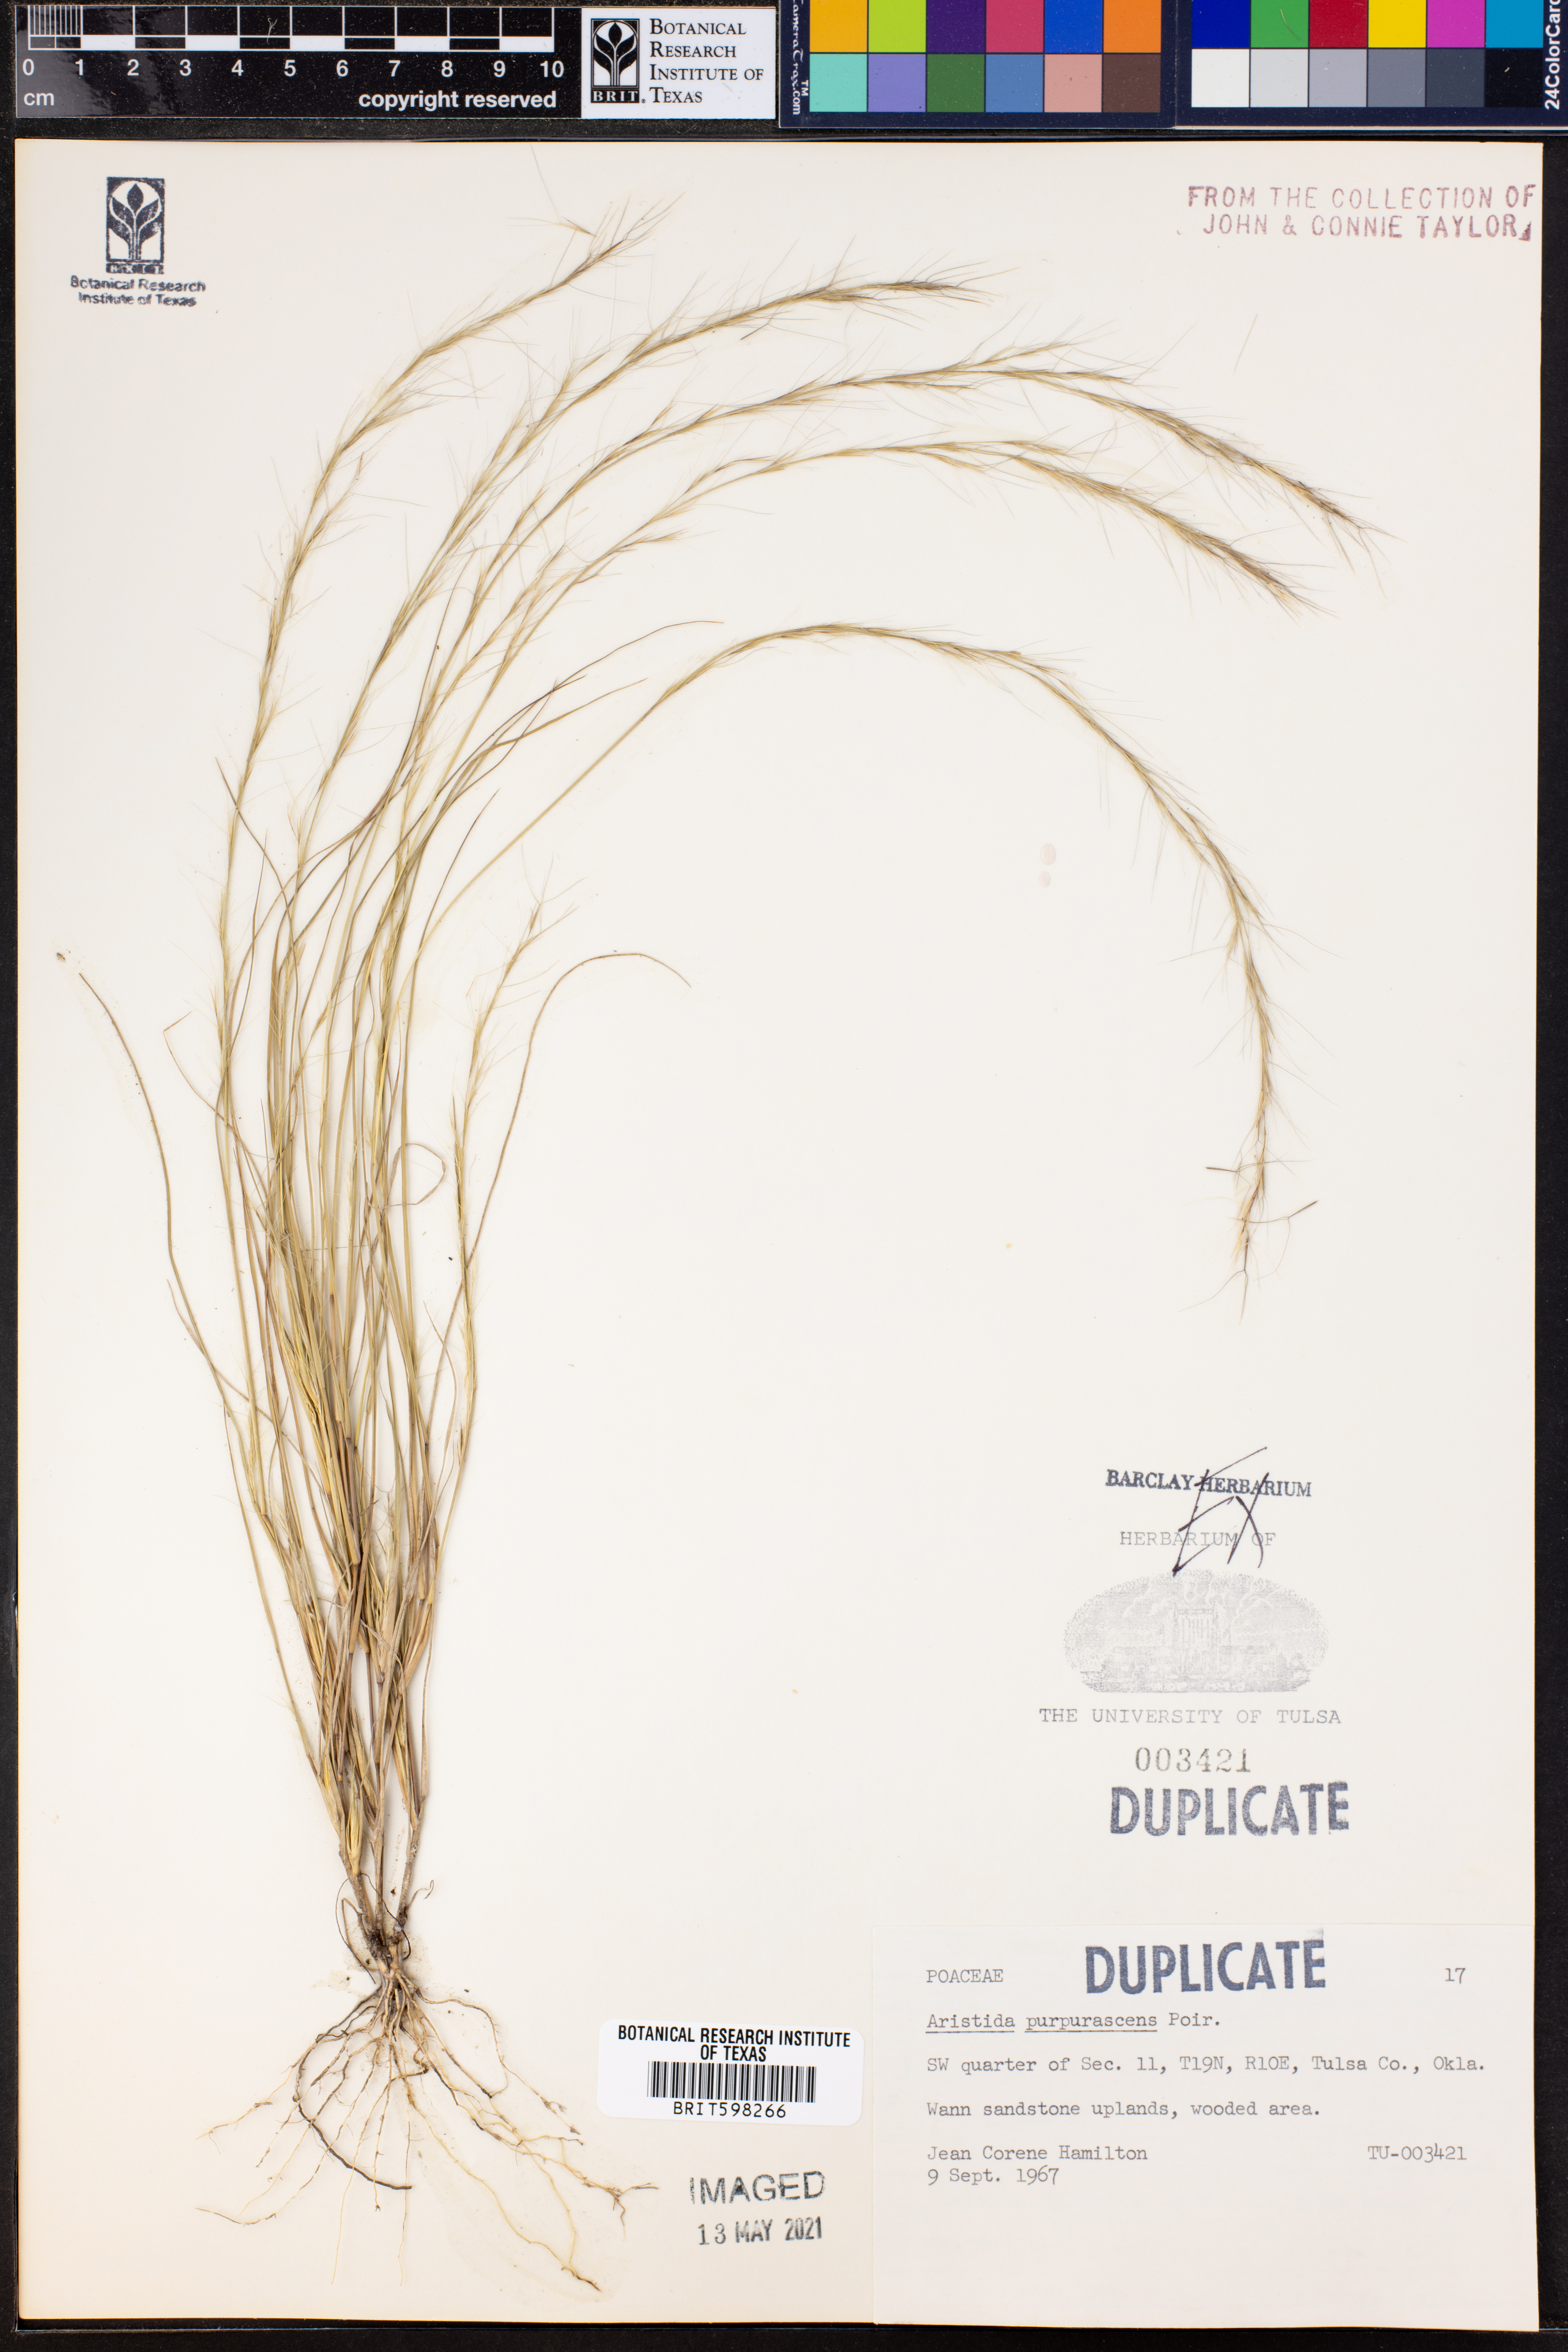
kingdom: Plantae
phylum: Tracheophyta
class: Liliopsida
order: Poales
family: Poaceae
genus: Aristida
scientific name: Aristida purpurascens
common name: Arrow-feather
